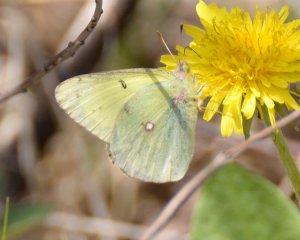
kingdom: Animalia
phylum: Arthropoda
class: Insecta
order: Lepidoptera
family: Pieridae
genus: Colias
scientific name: Colias philodice
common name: Clouded Sulphur
